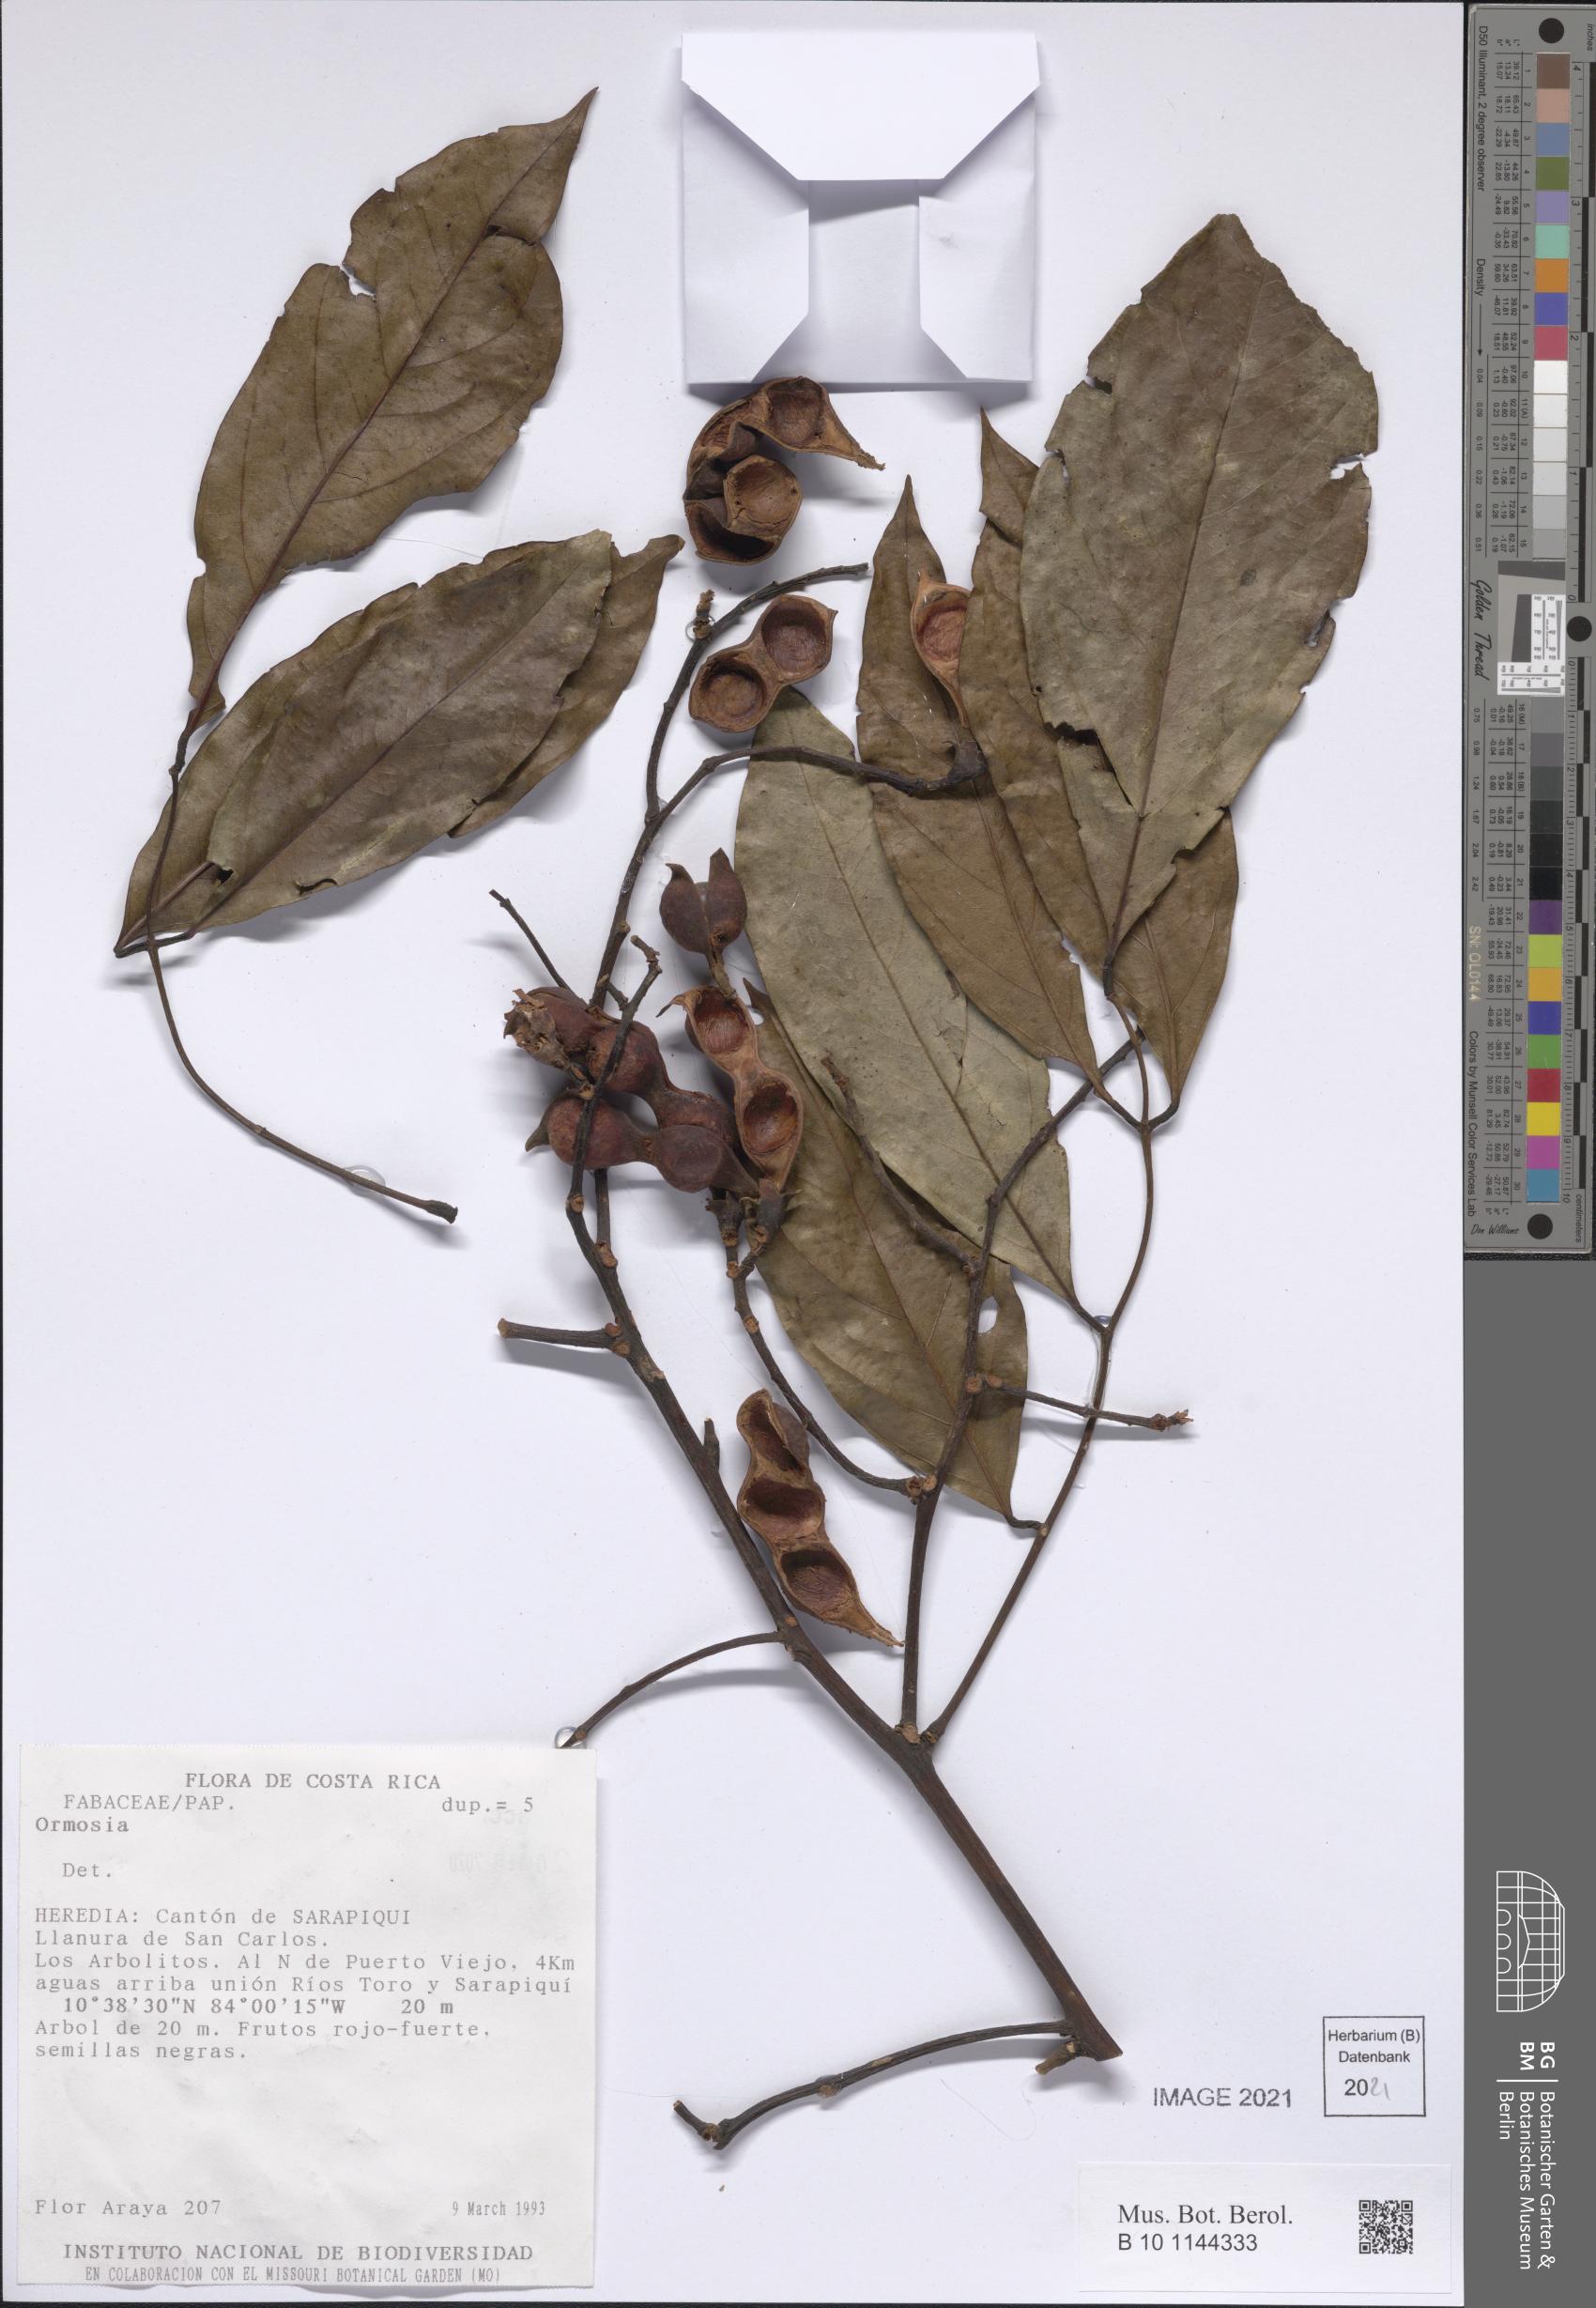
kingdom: Plantae
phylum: Tracheophyta
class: Magnoliopsida
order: Fabales
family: Fabaceae
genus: Ormosia
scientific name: Ormosia intermedia
